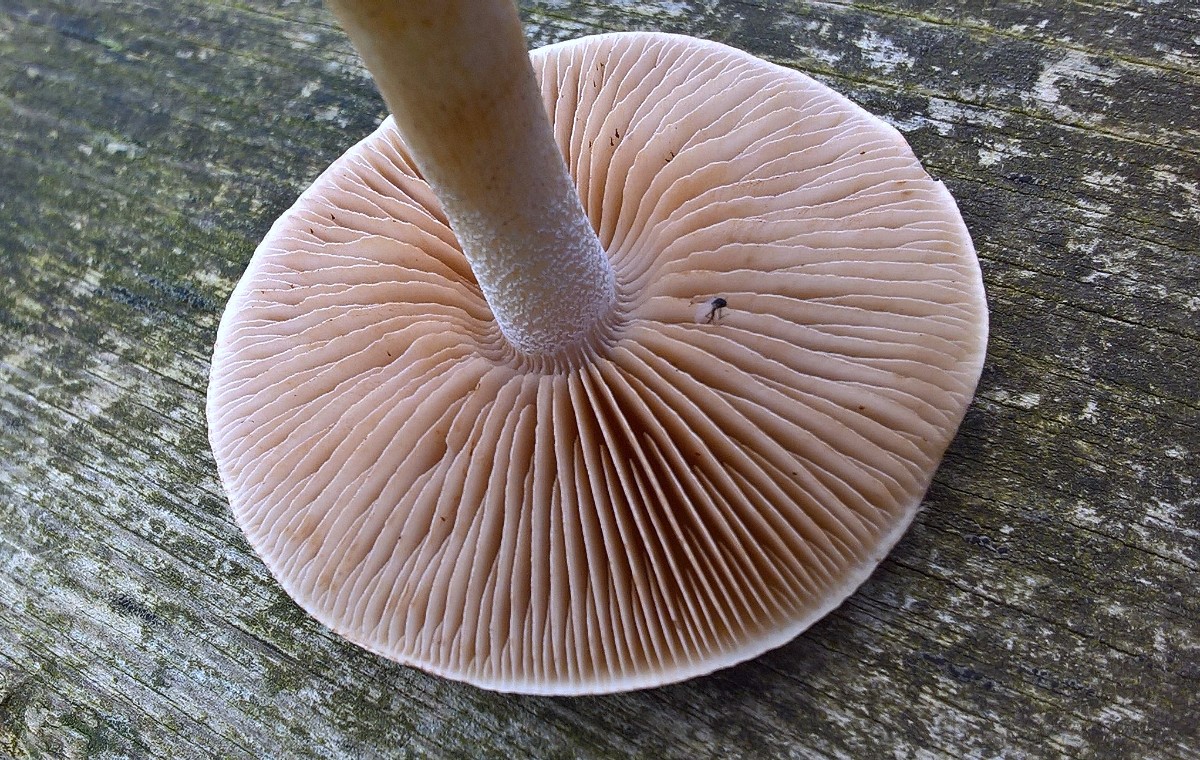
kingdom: Fungi
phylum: Basidiomycota
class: Agaricomycetes
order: Agaricales
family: Hymenogastraceae
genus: Hebeloma
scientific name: Hebeloma
